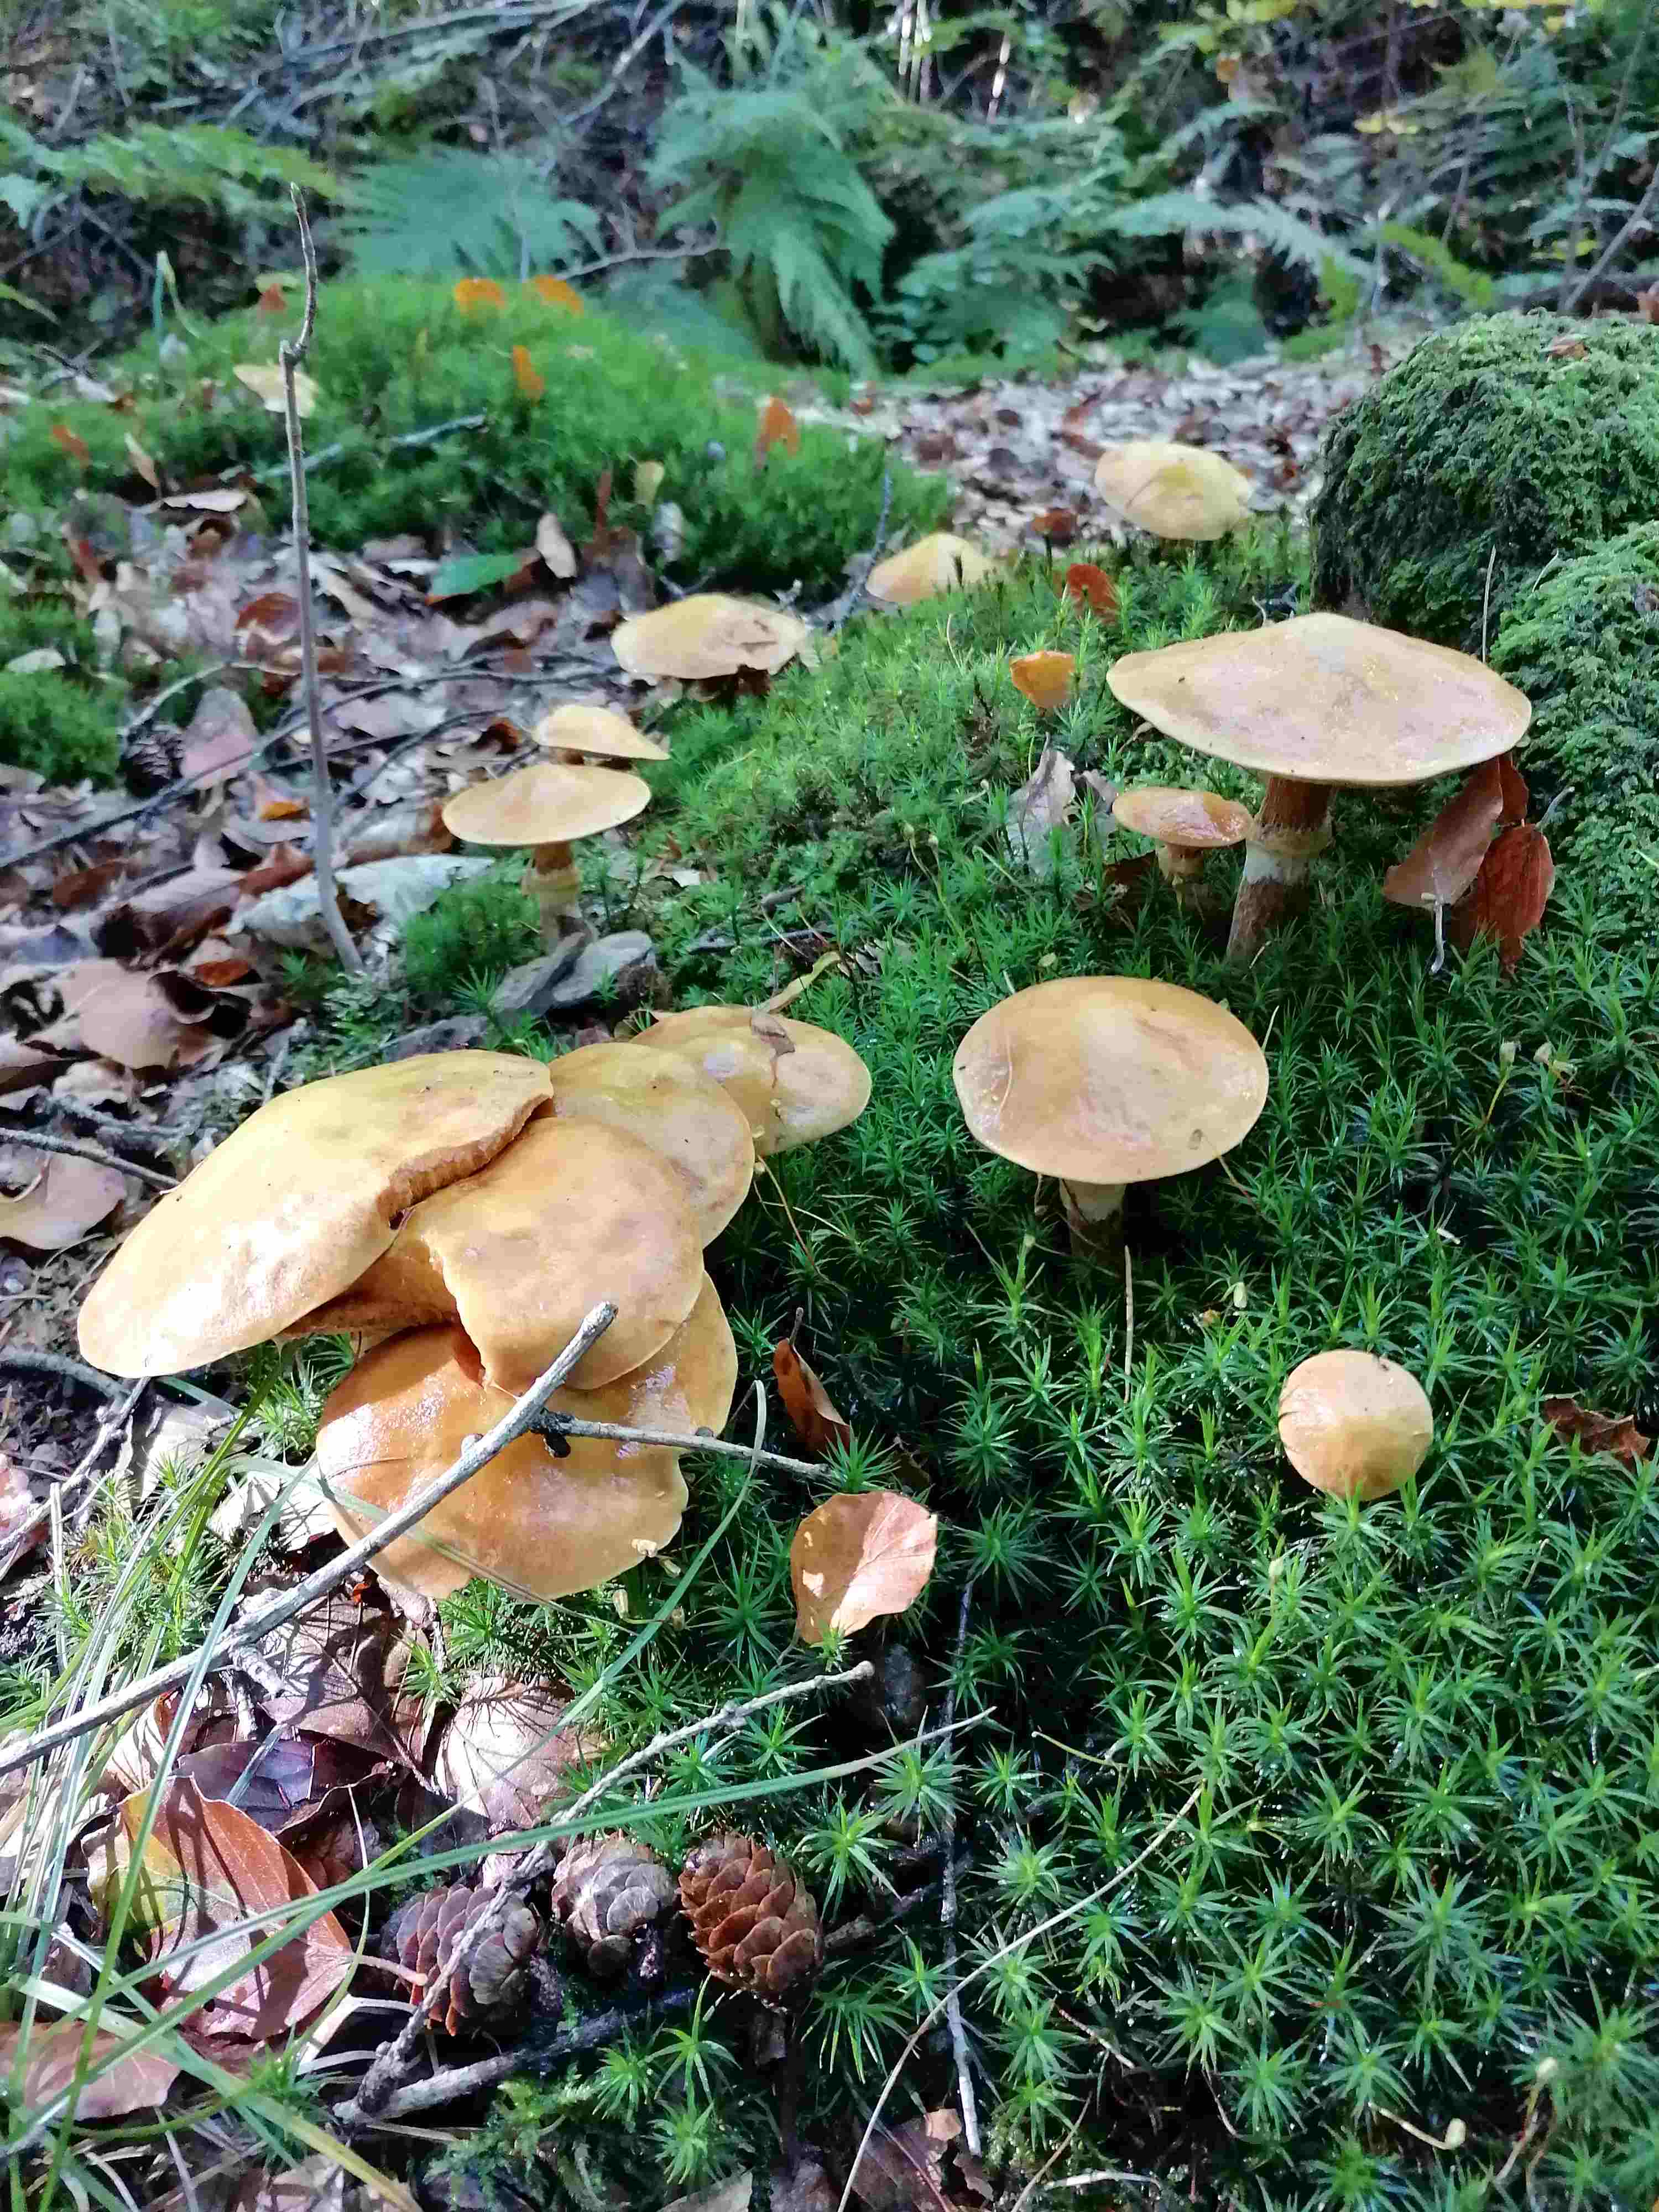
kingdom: Fungi
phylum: Basidiomycota
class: Agaricomycetes
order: Boletales
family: Suillaceae
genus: Suillus
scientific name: Suillus grevillei
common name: lærke-slimrørhat
